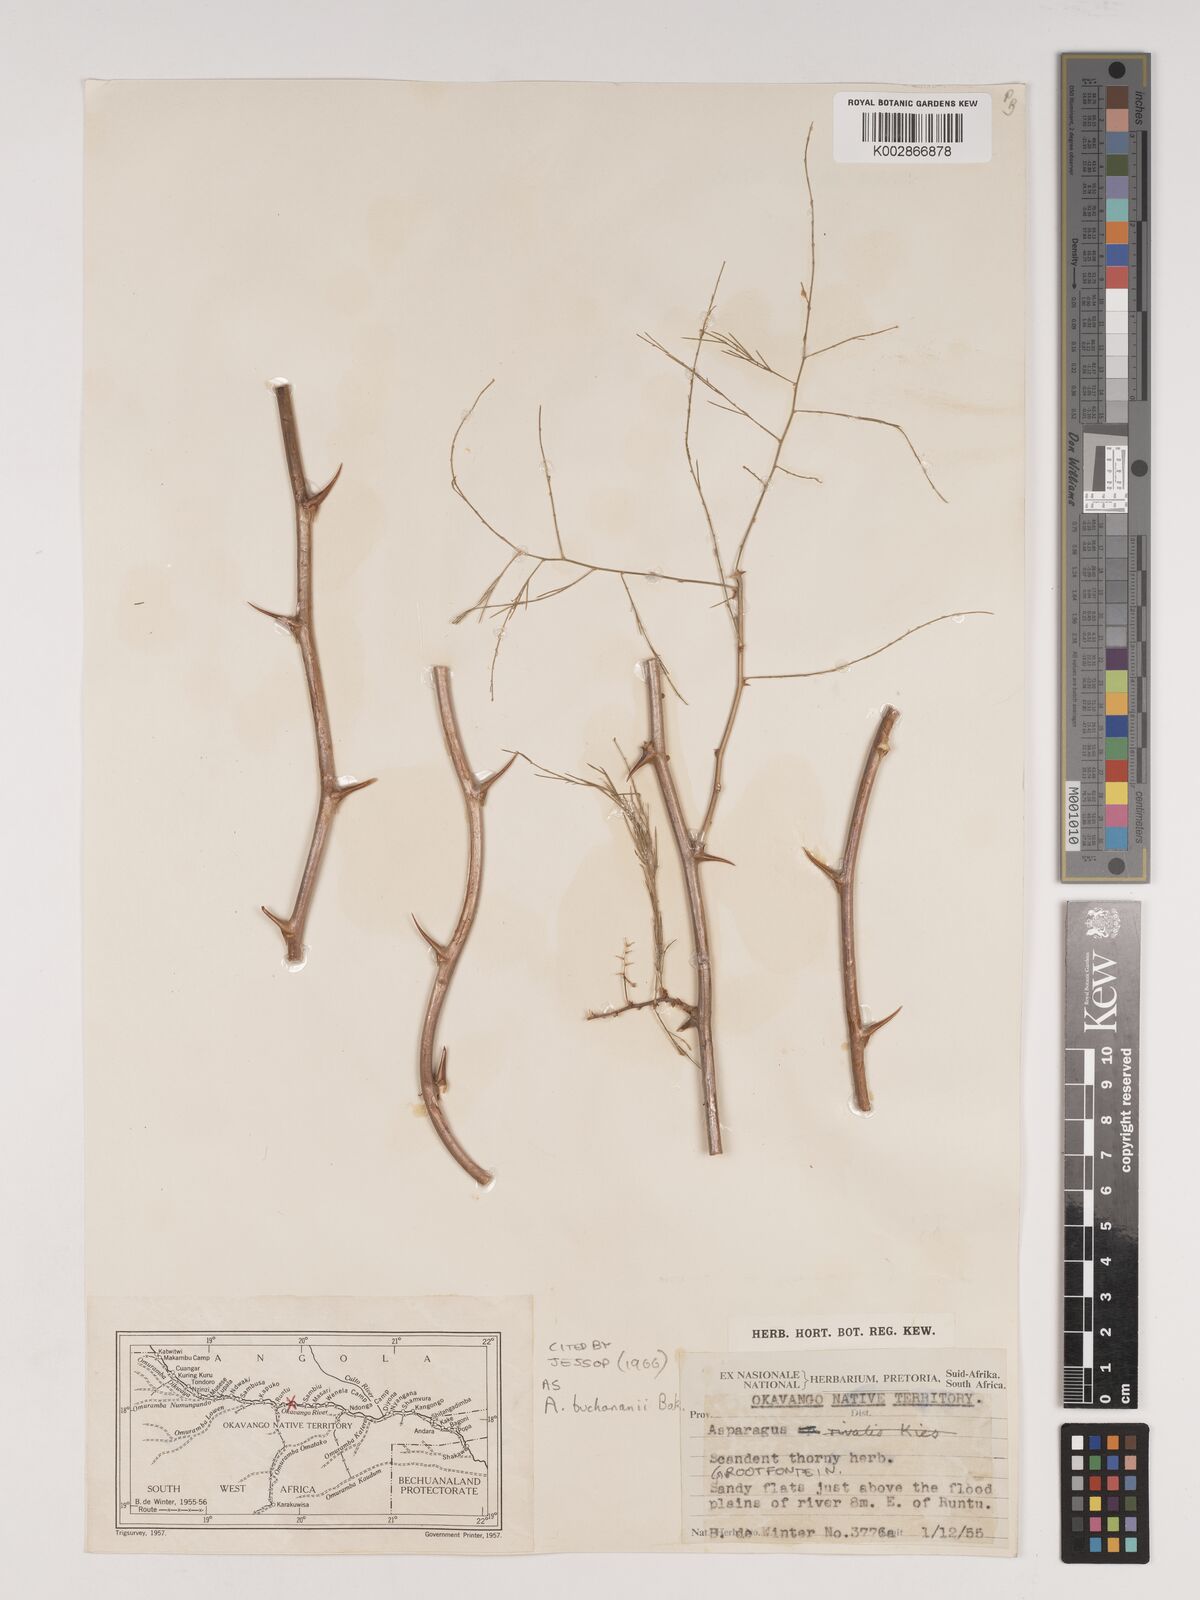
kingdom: Plantae
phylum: Tracheophyta
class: Liliopsida
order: Asparagales
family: Asparagaceae
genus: Asparagus
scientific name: Asparagus buchananii
